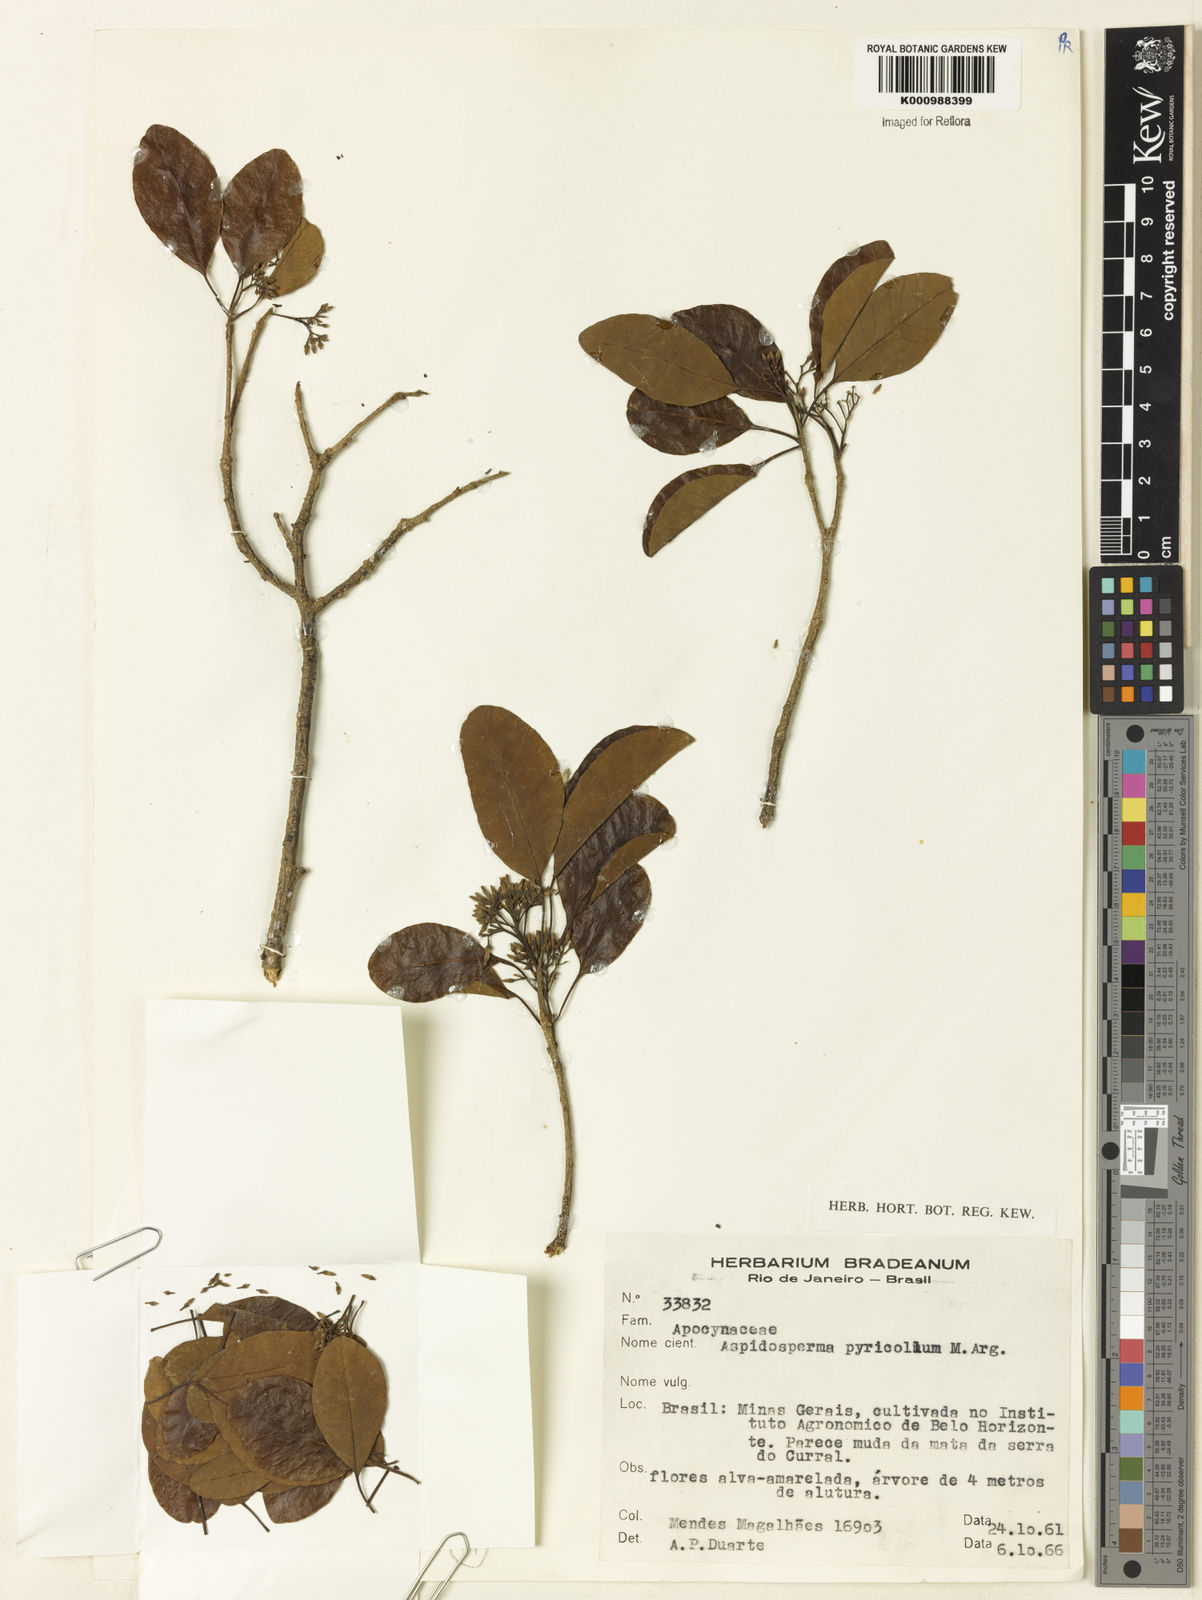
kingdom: Plantae
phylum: Tracheophyta
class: Magnoliopsida
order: Gentianales
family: Apocynaceae
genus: Aspidosperma
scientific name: Aspidosperma
